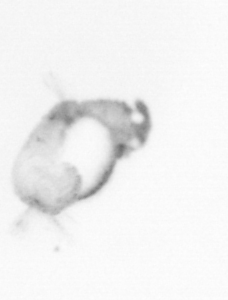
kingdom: Animalia
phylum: Annelida
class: Polychaeta
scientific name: Polychaeta
